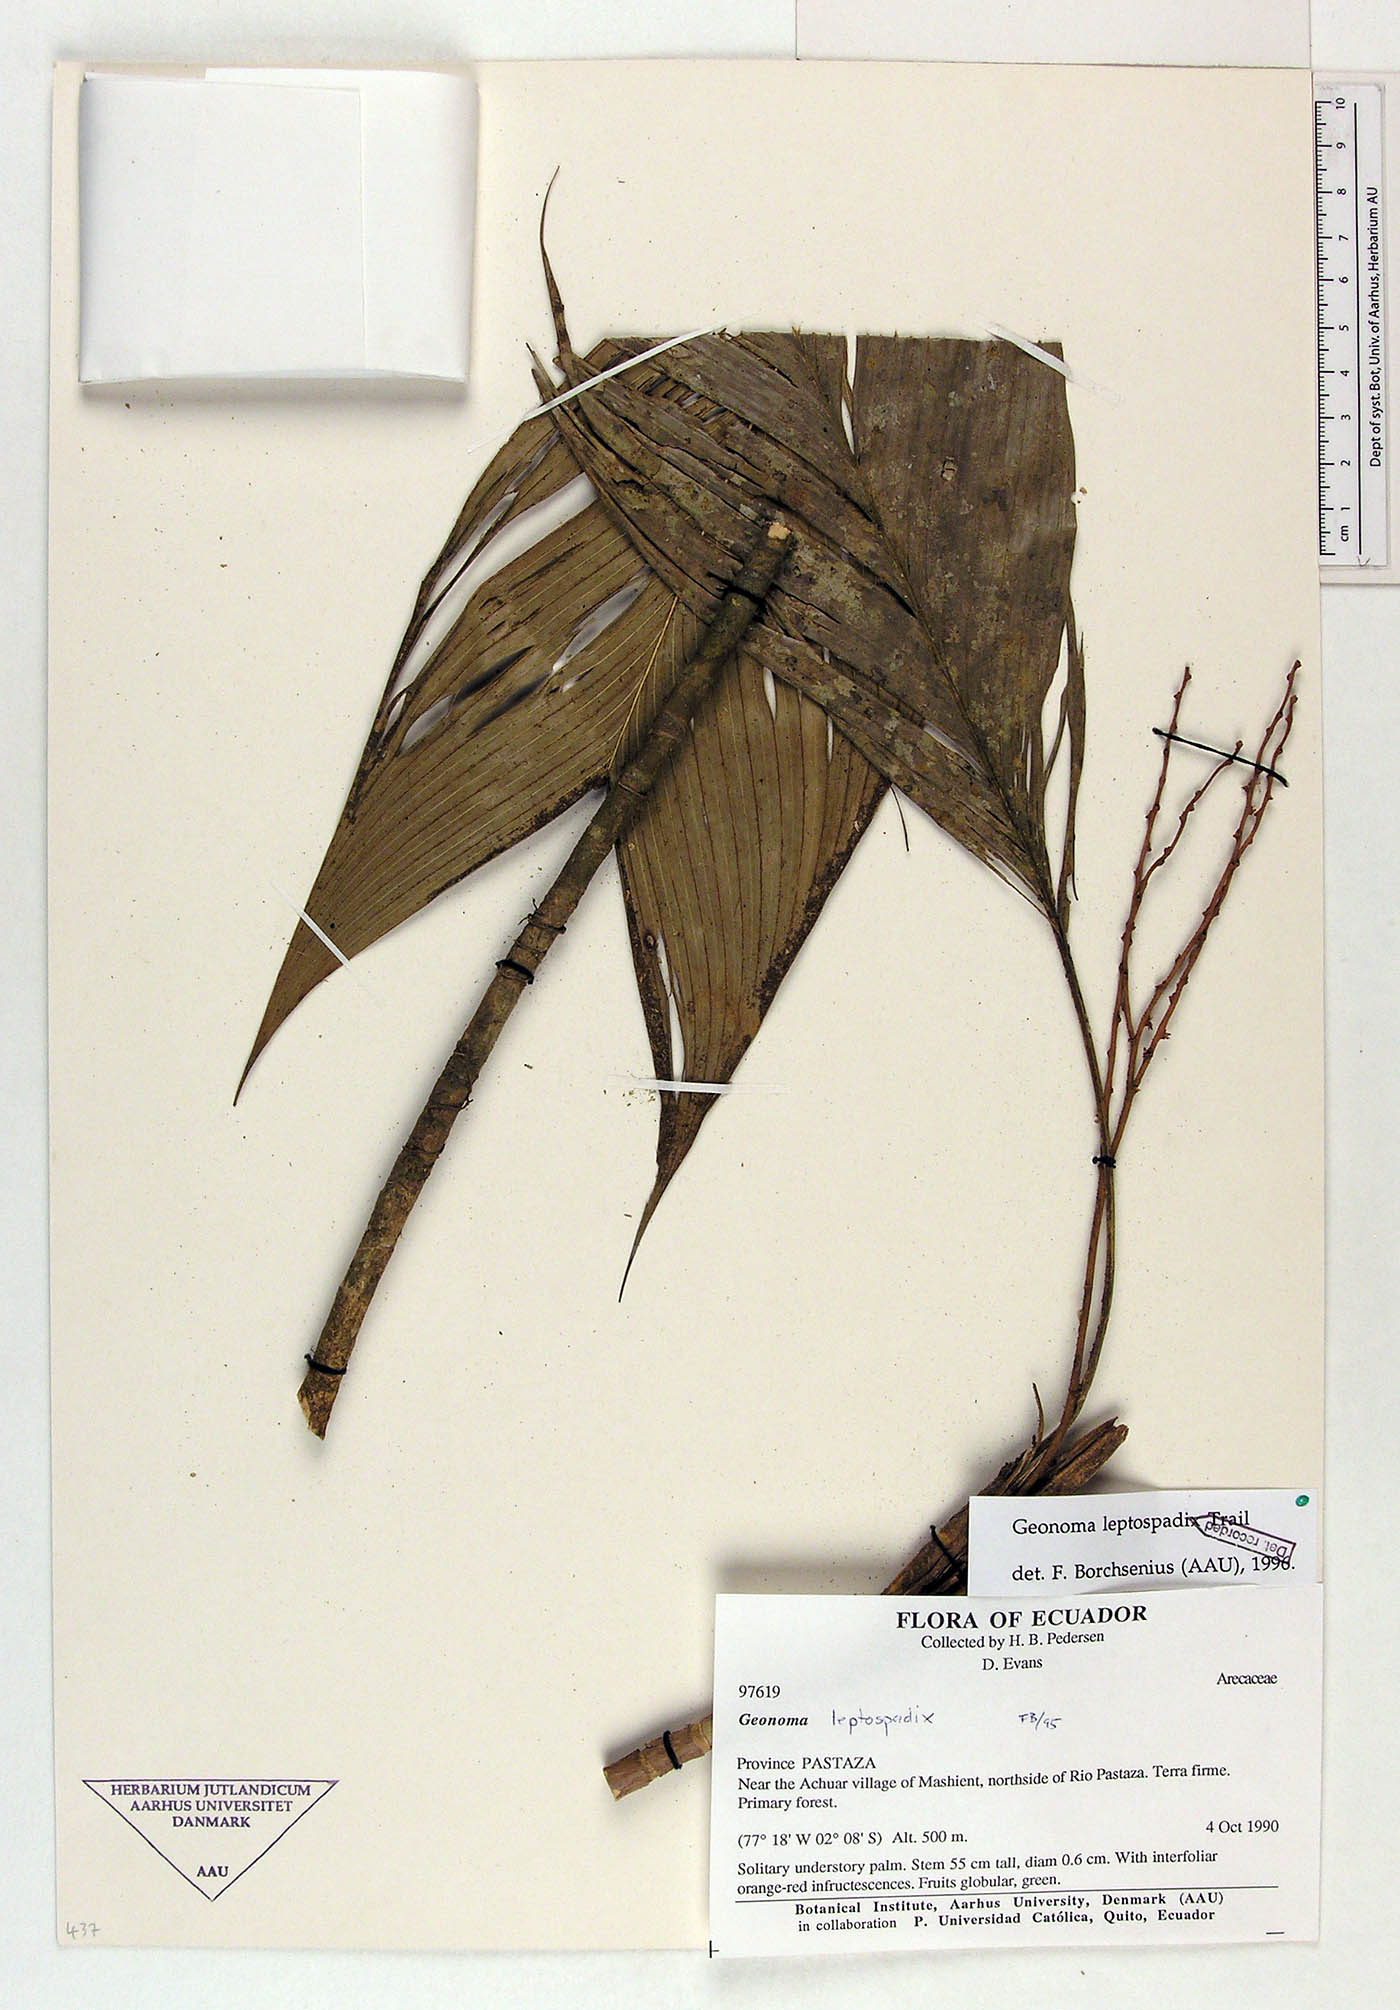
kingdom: Plantae
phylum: Tracheophyta
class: Liliopsida
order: Arecales
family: Arecaceae
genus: Geonoma
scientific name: Geonoma leptospadix
